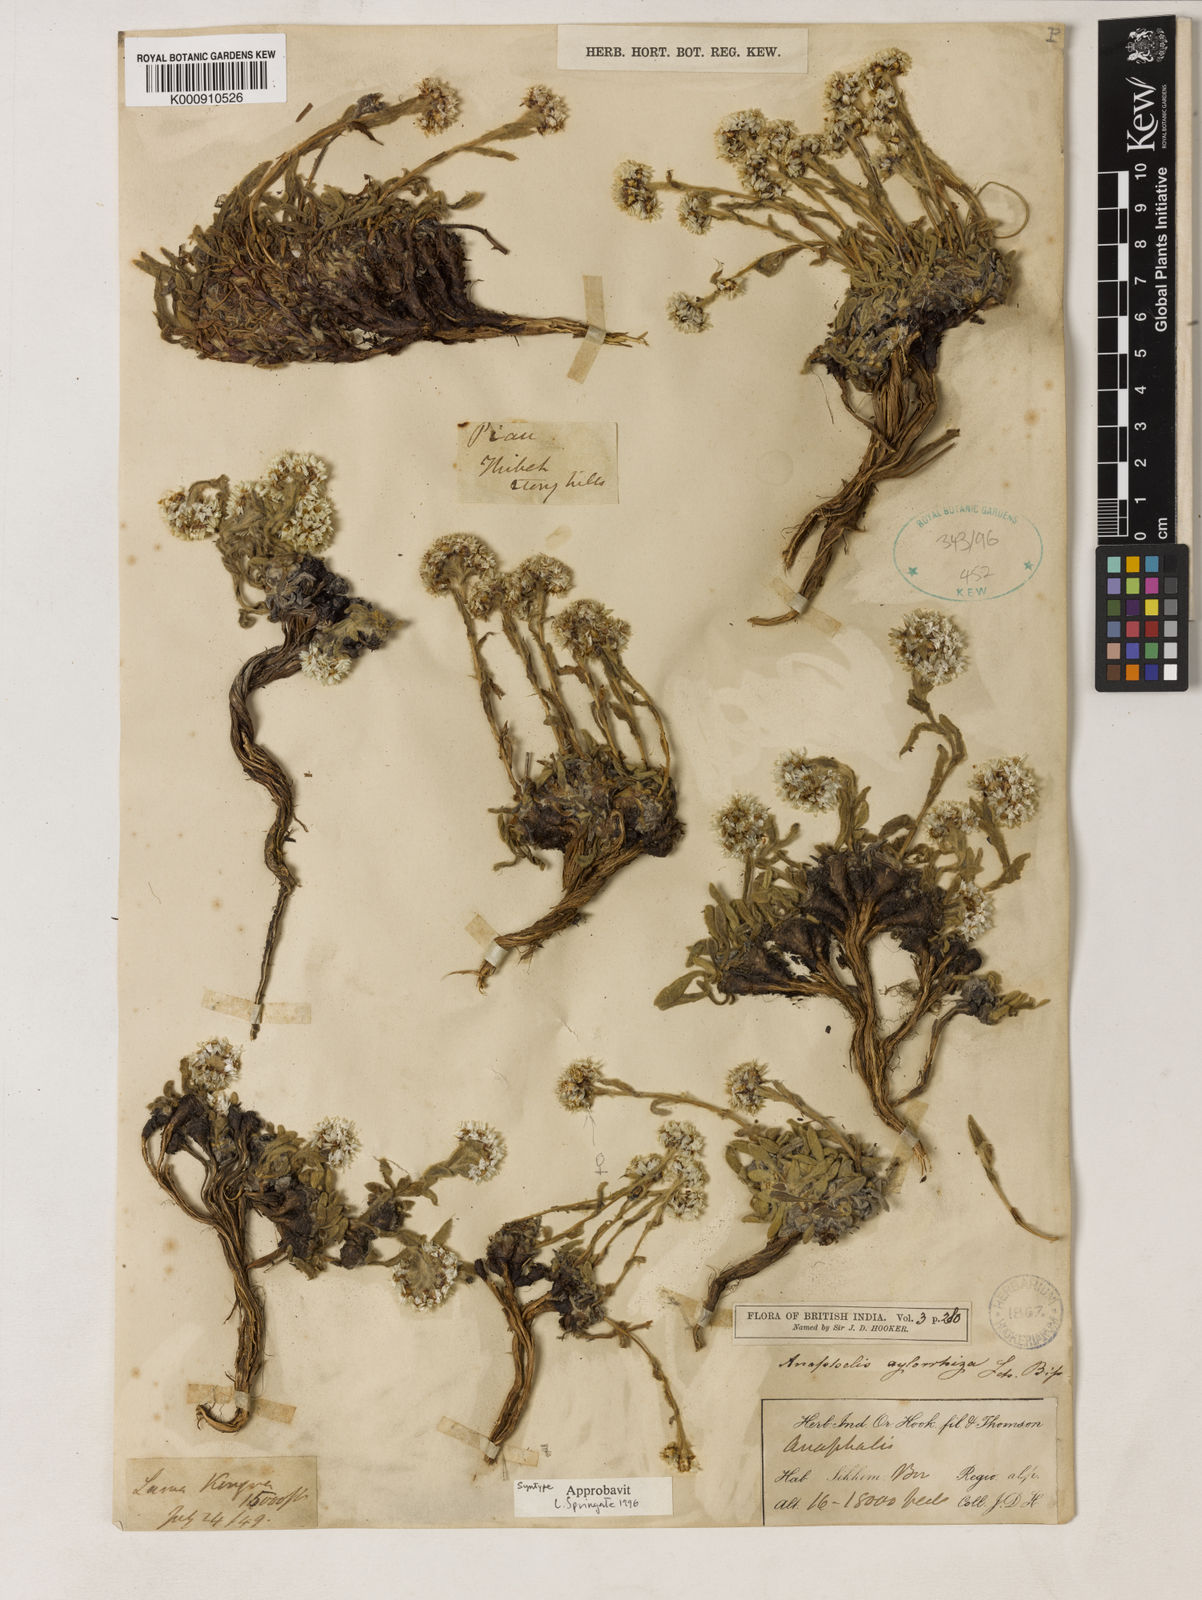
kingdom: Plantae
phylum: Tracheophyta
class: Magnoliopsida
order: Asterales
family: Asteraceae
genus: Anaphalis
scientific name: Anaphalis xylorhiza
